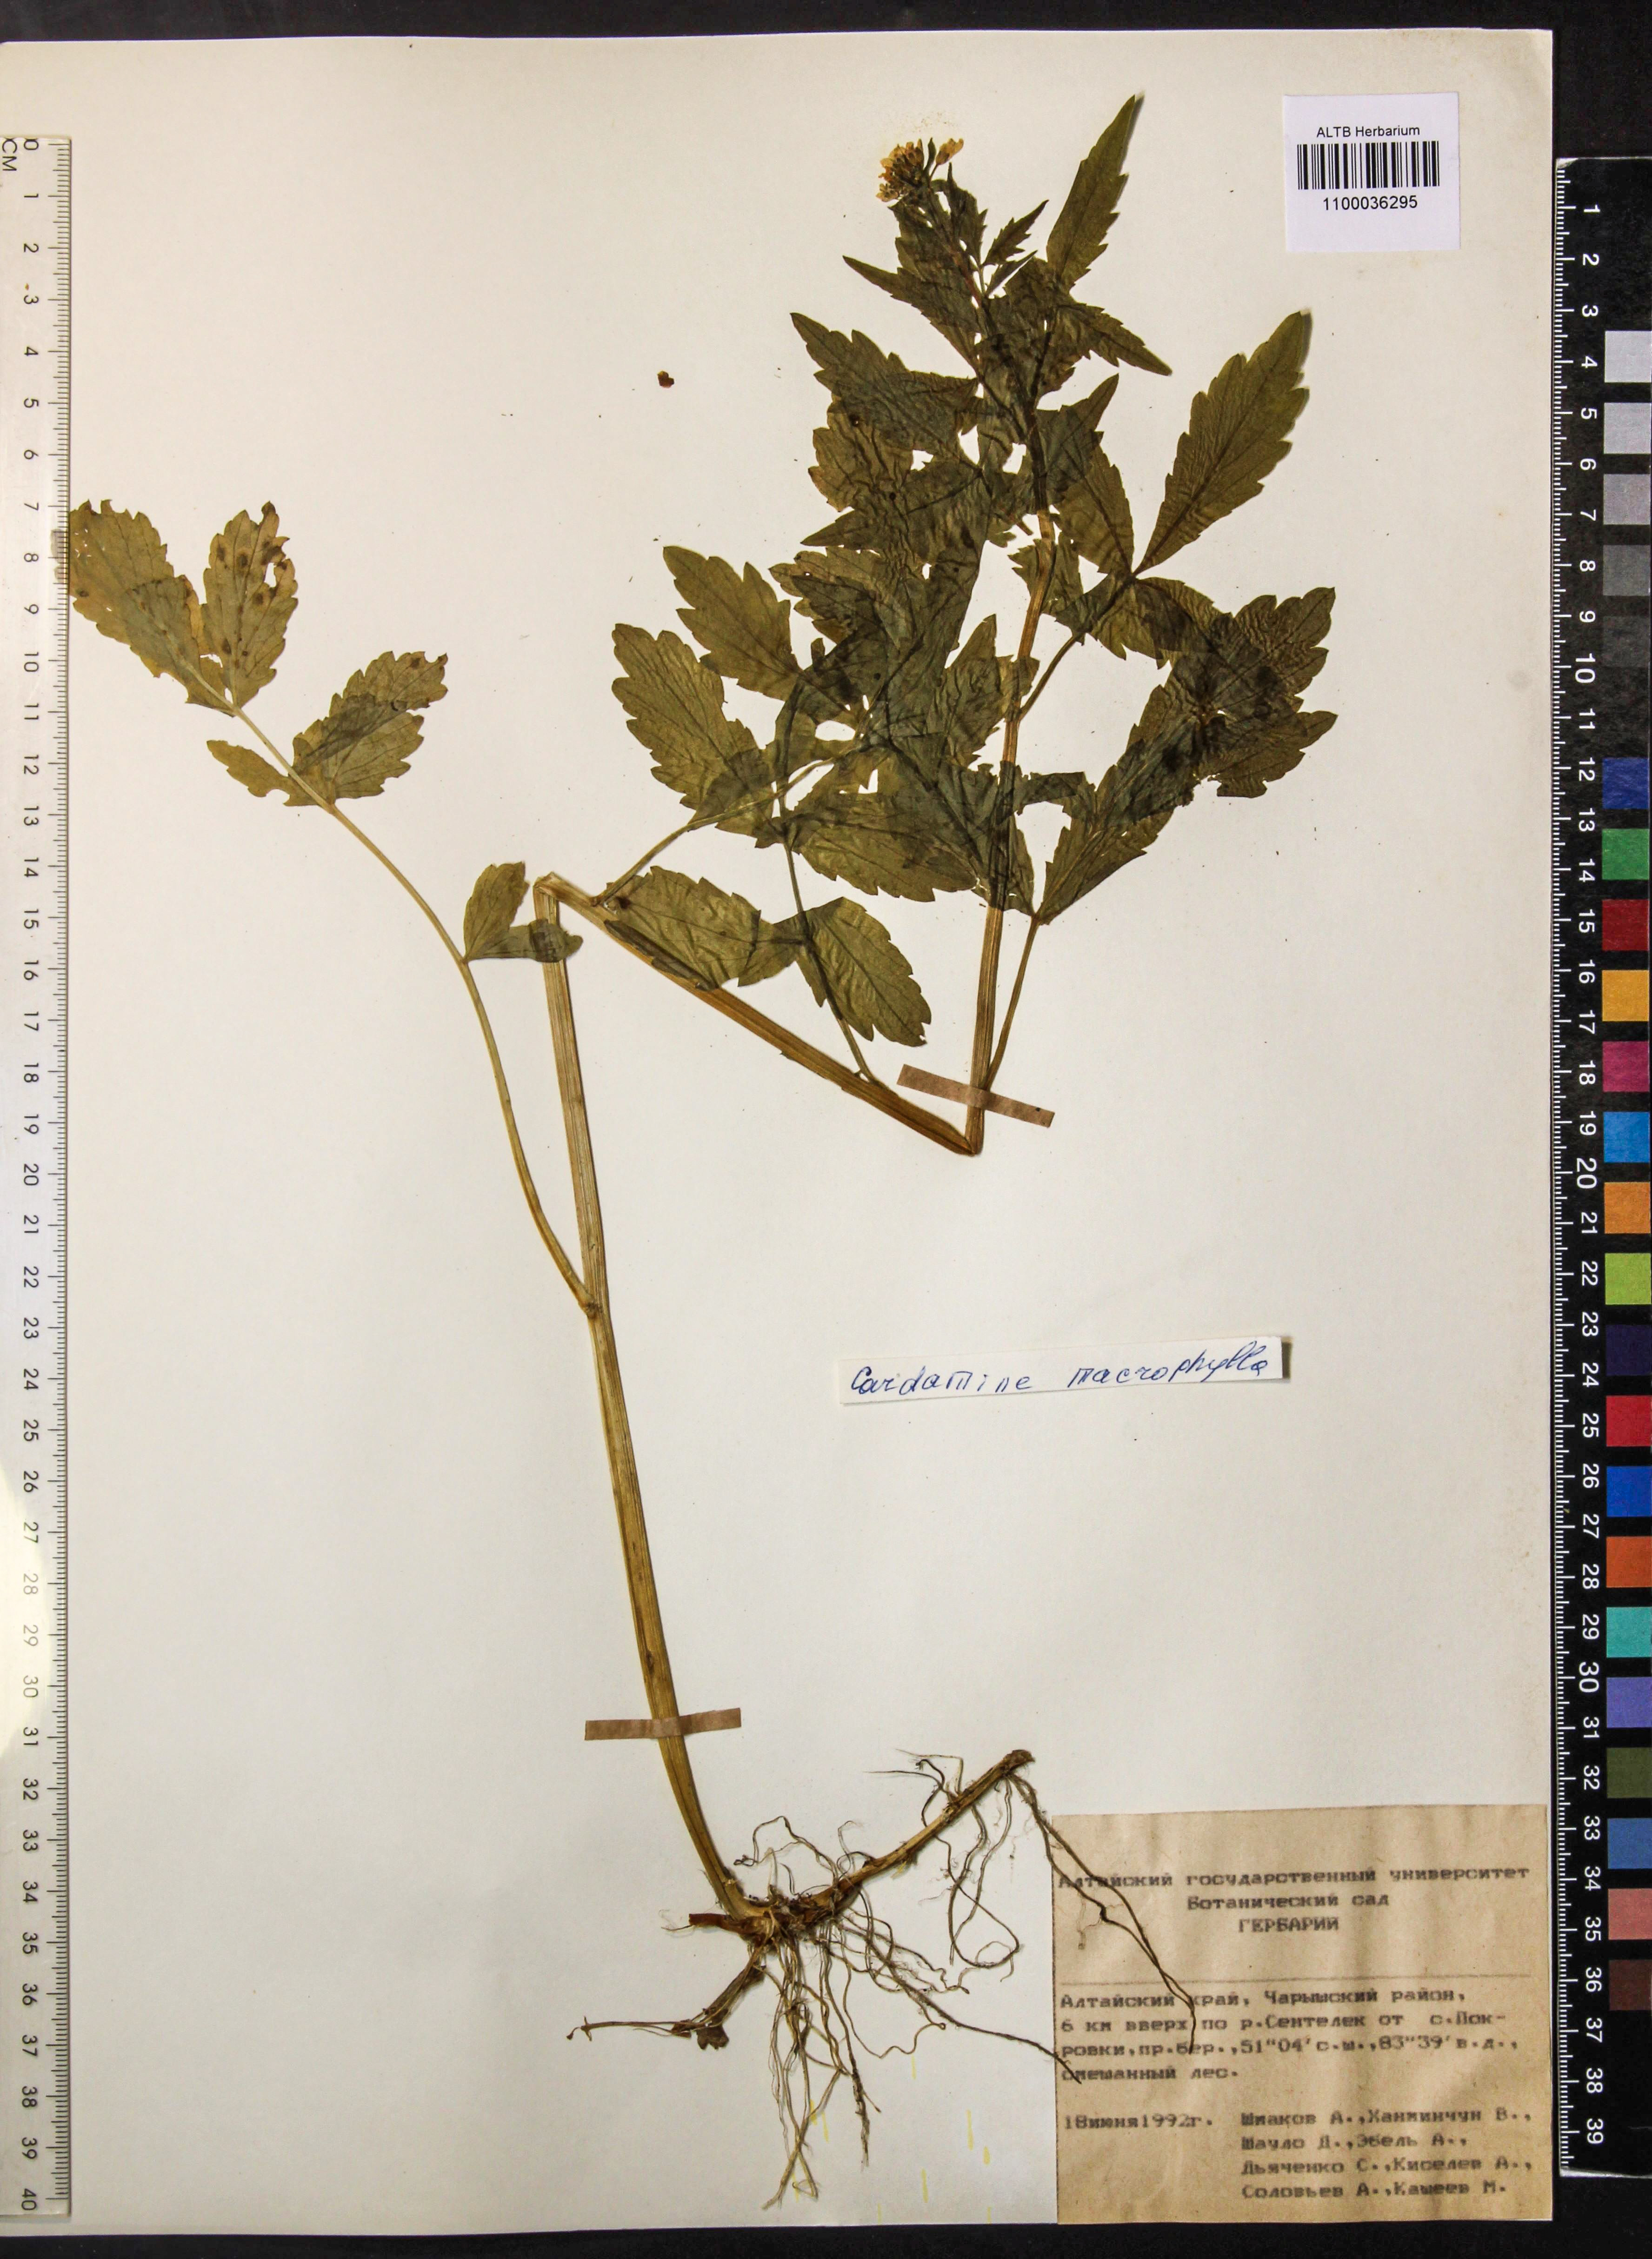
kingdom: Plantae
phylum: Tracheophyta
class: Magnoliopsida
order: Brassicales
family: Brassicaceae
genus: Cardamine
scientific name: Cardamine macrophylla
